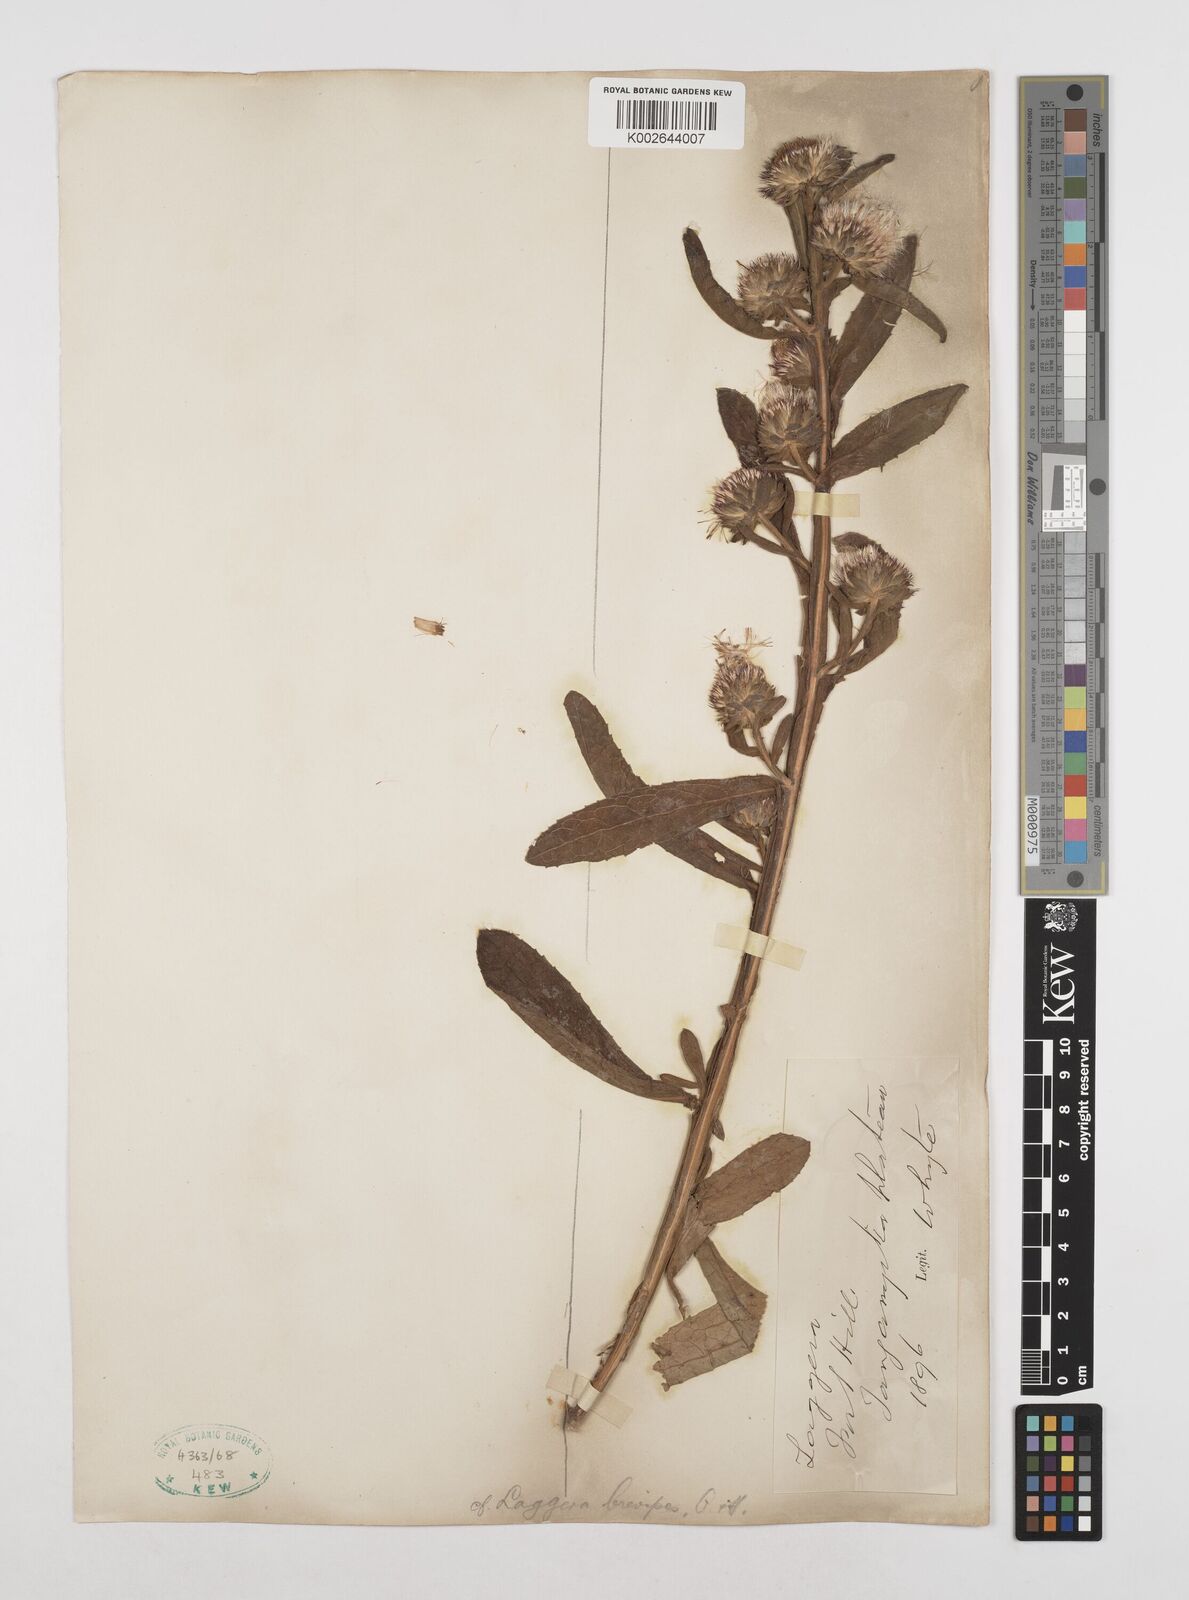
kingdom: Plantae
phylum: Tracheophyta
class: Magnoliopsida
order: Asterales
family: Asteraceae
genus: Laggera
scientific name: Laggera brevipes
